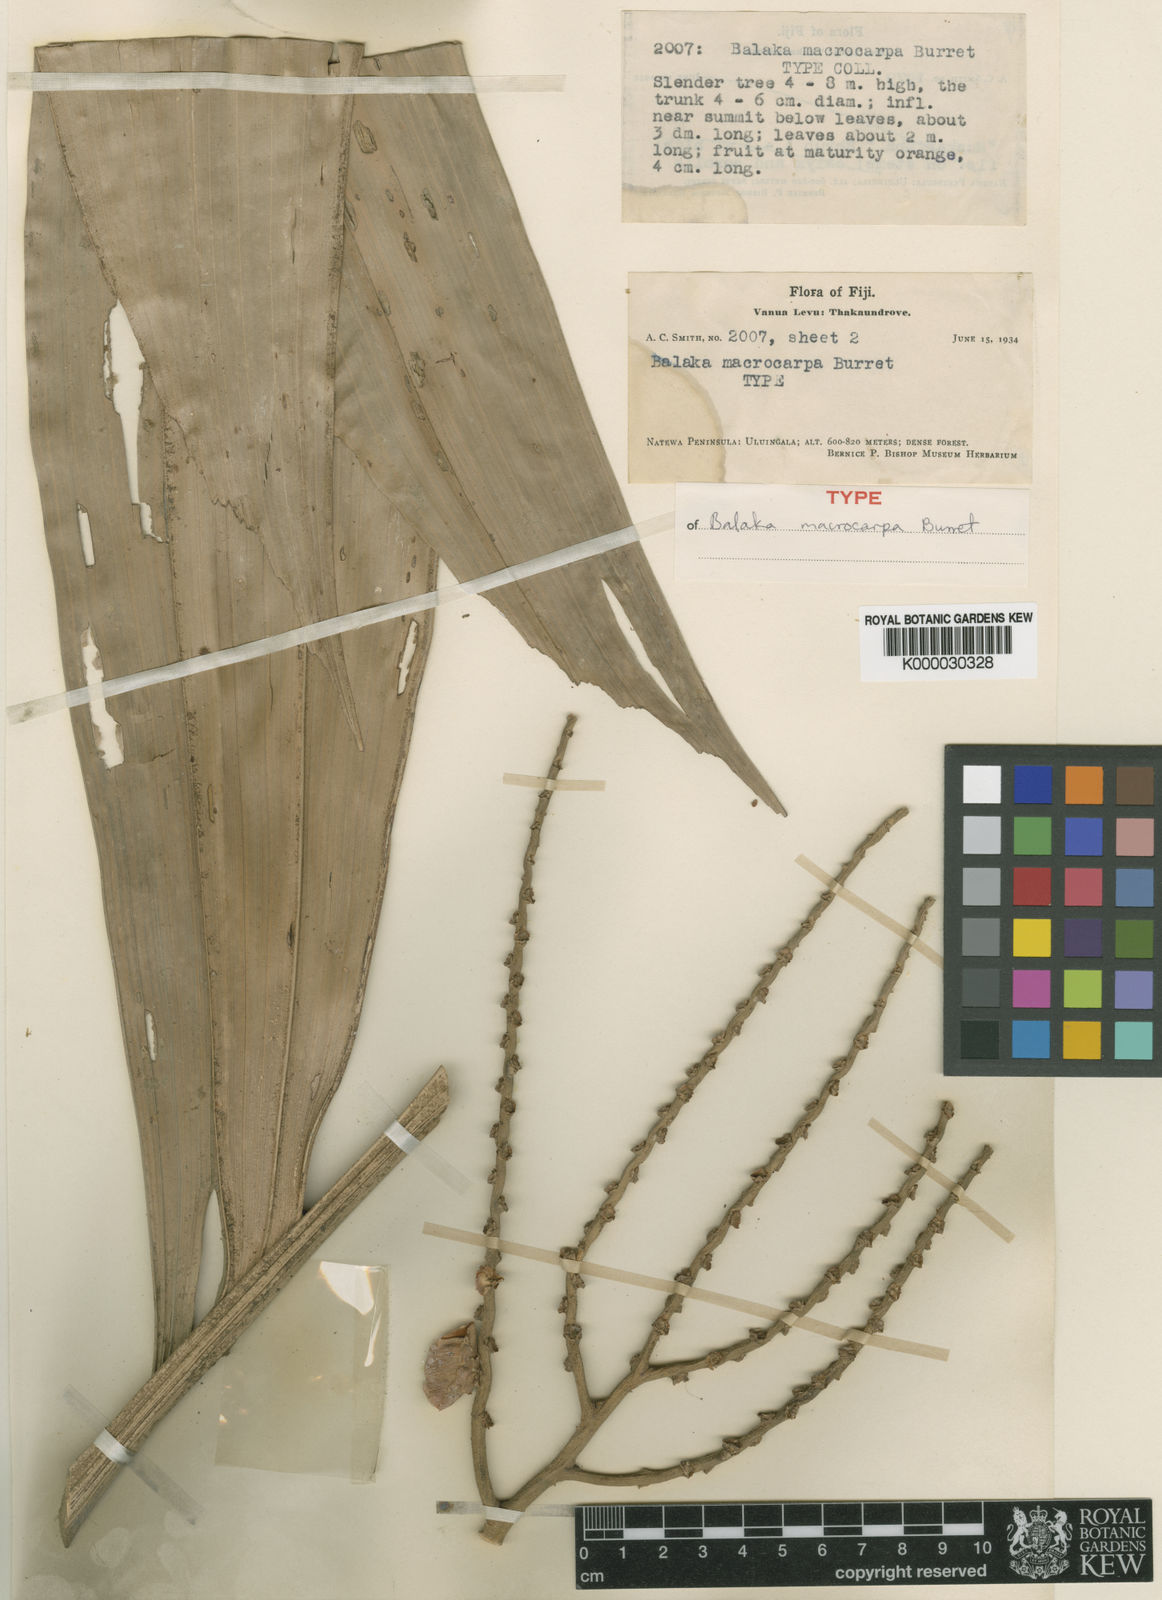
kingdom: Plantae
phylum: Tracheophyta
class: Liliopsida
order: Arecales
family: Arecaceae
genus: Balaka
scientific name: Balaka macrocarpa
